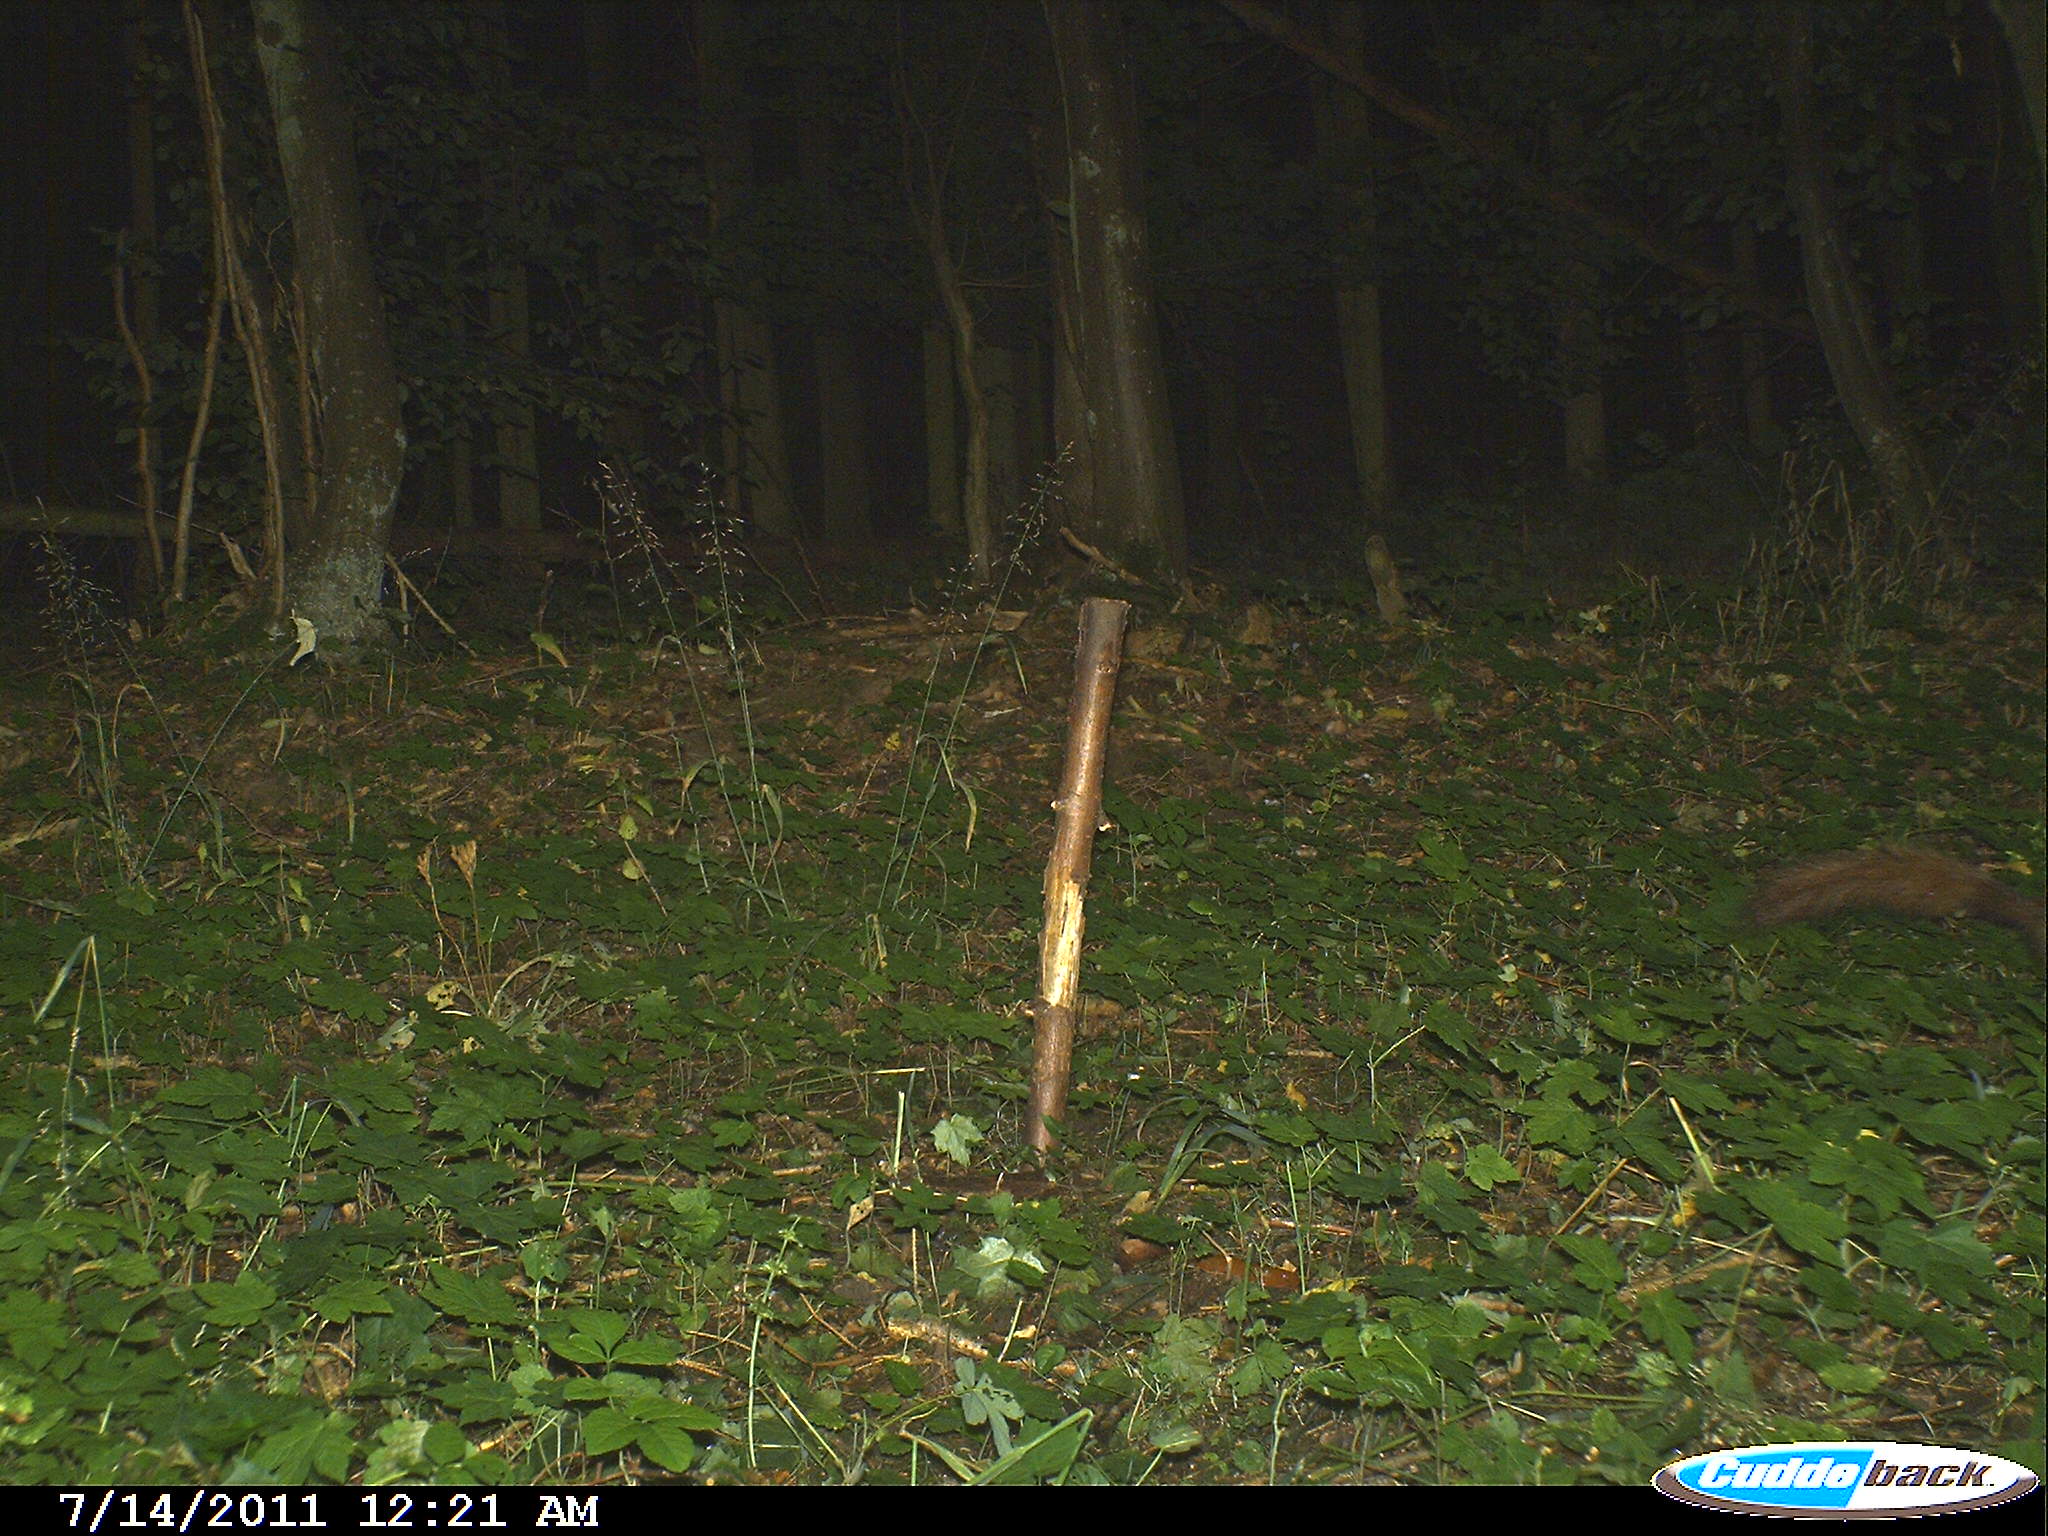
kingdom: Animalia
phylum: Chordata
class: Mammalia
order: Carnivora
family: Mustelidae
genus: Martes
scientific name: Martes
